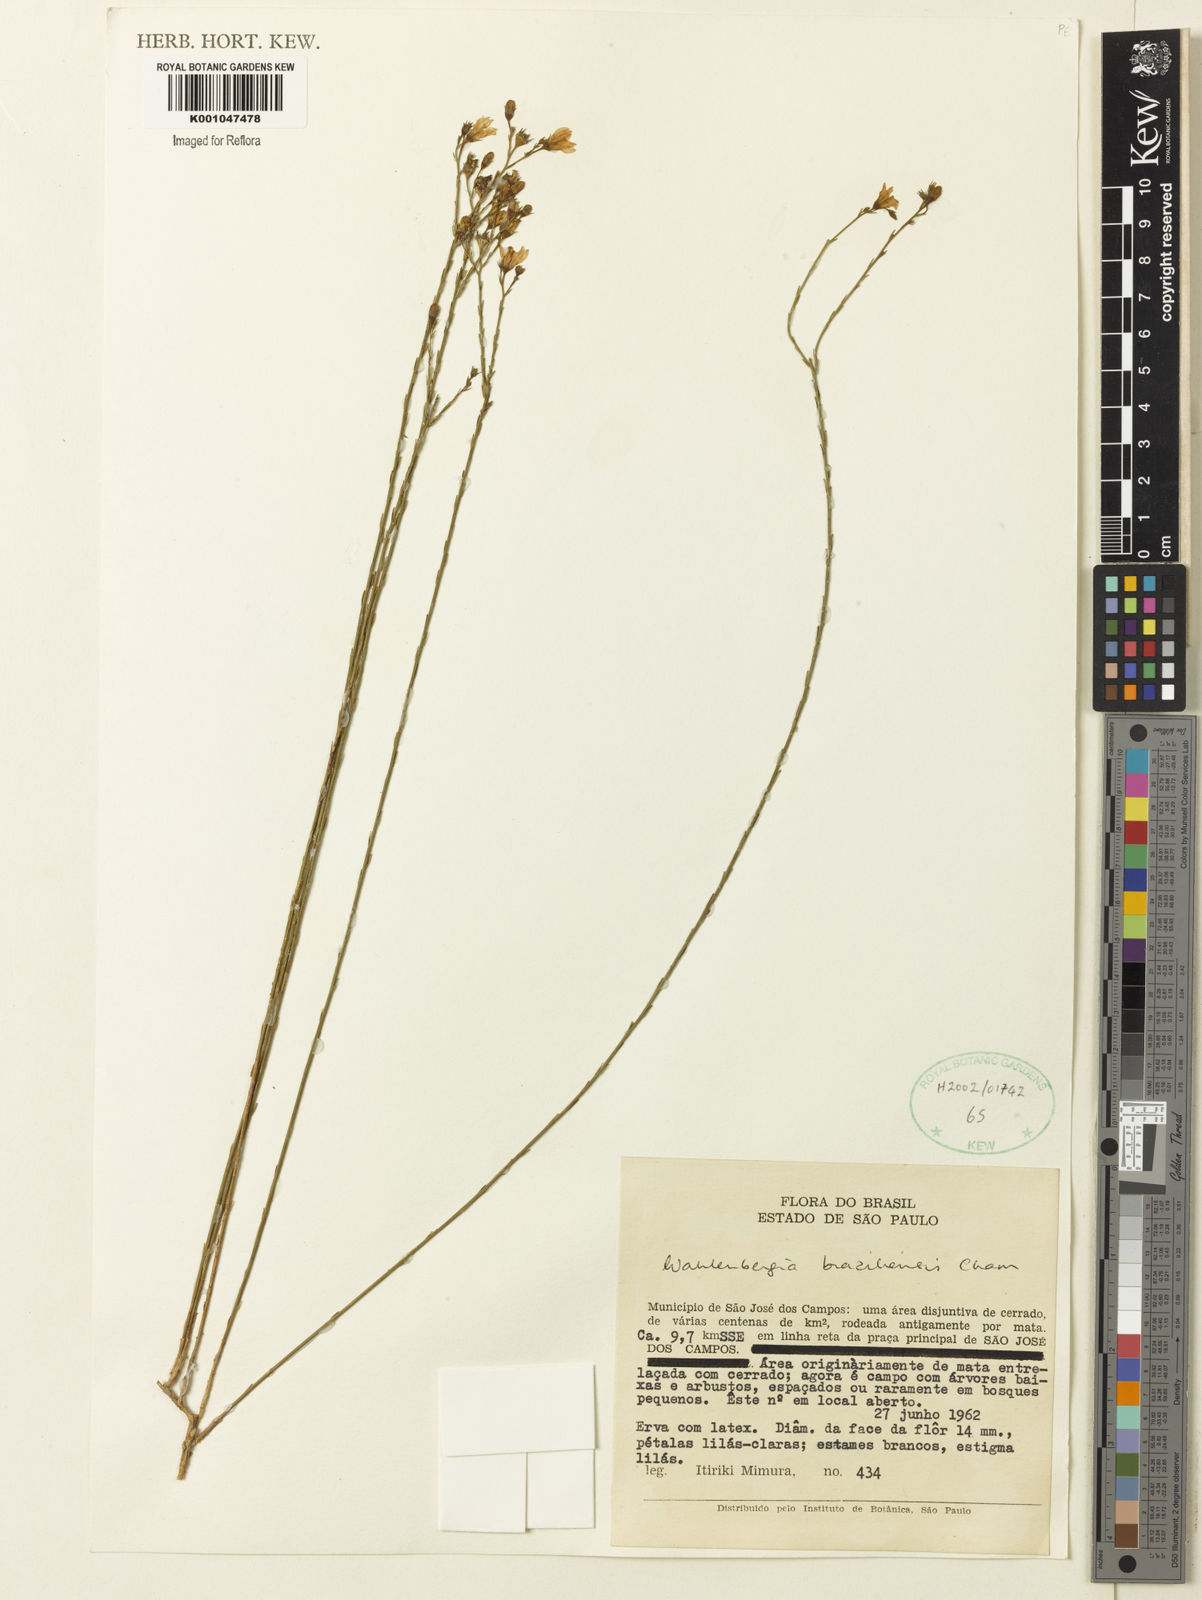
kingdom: Plantae
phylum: Tracheophyta
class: Magnoliopsida
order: Asterales
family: Campanulaceae
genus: Wahlenbergia
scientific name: Wahlenbergia brasiliensis
